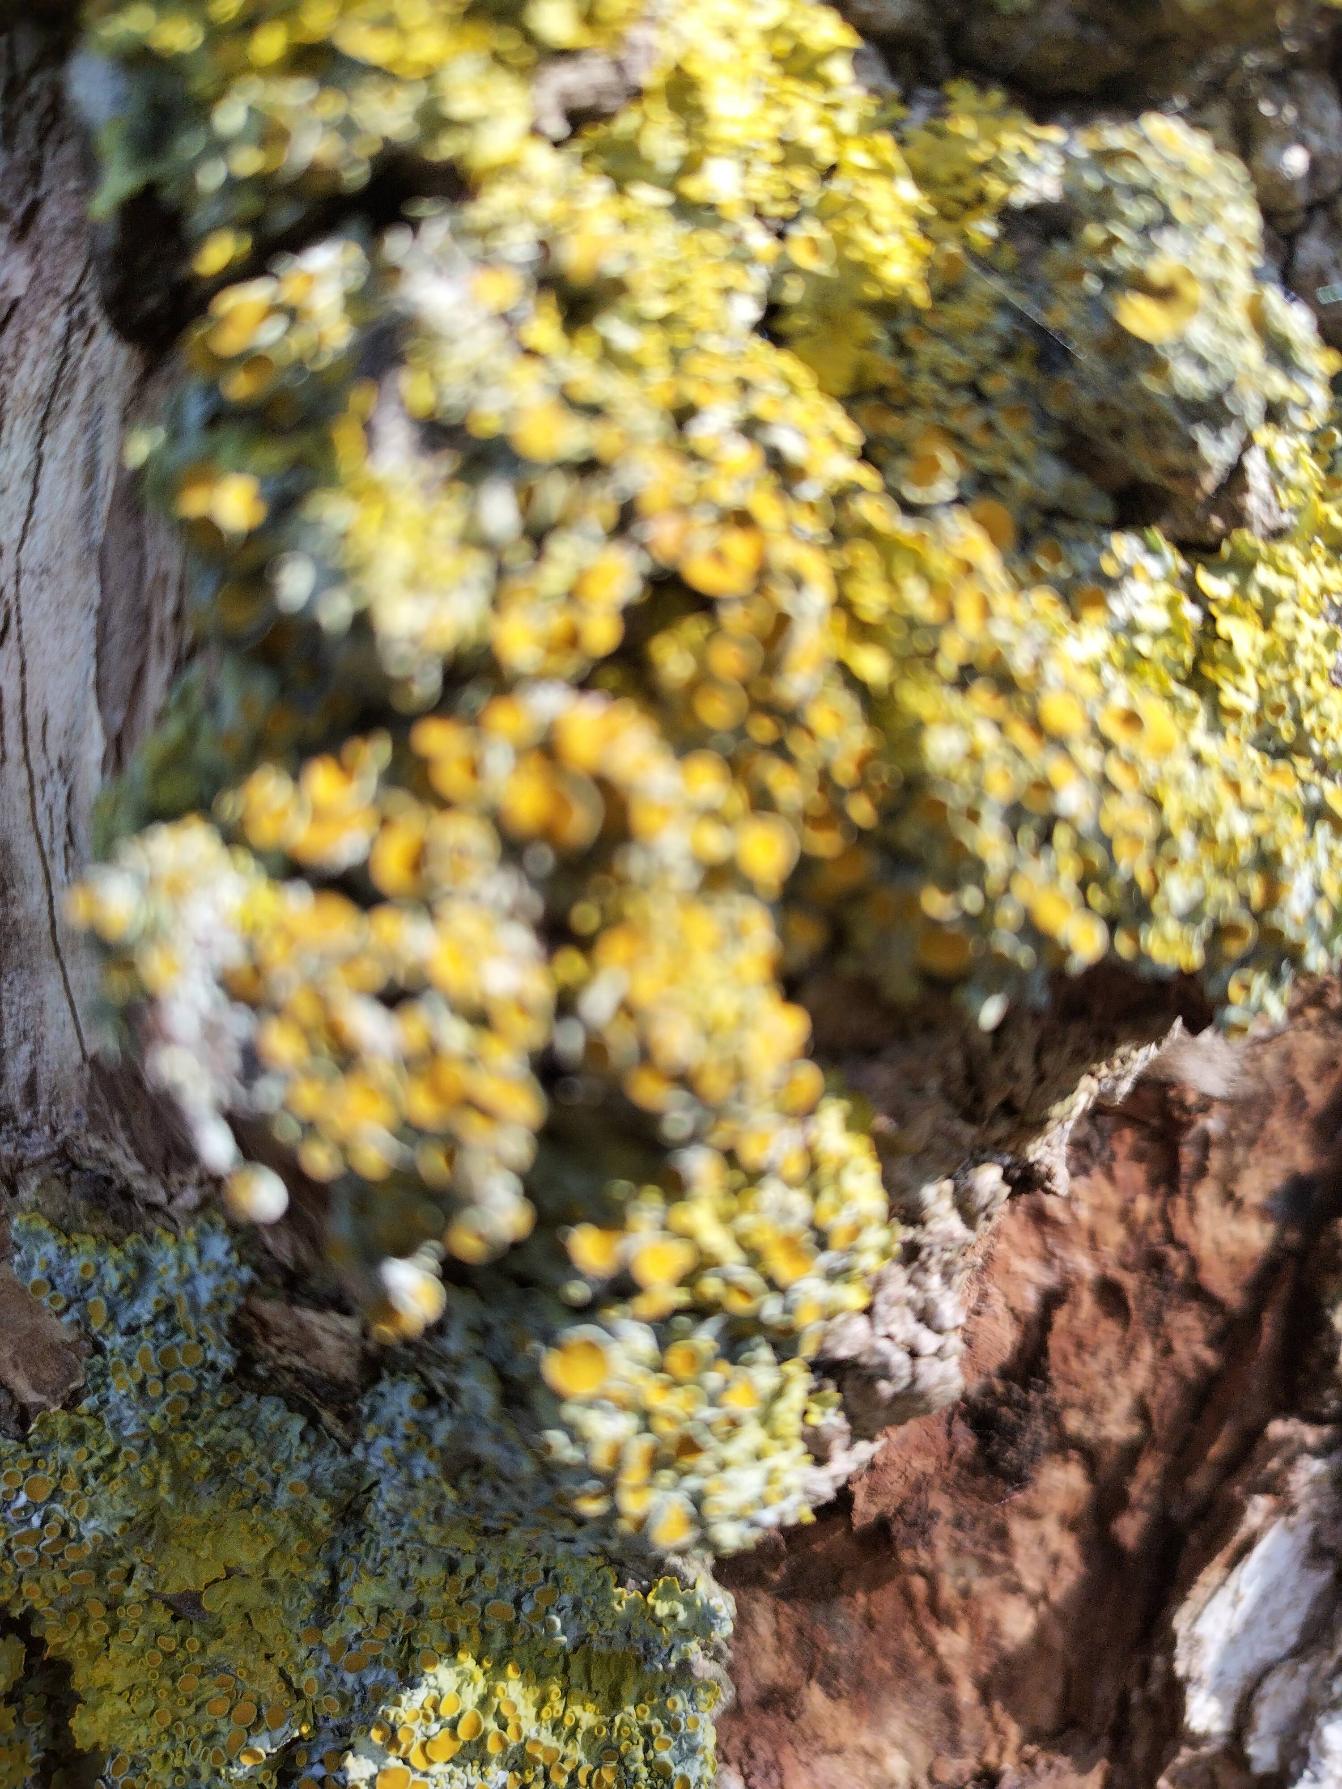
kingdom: Fungi
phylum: Ascomycota
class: Lecanoromycetes
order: Teloschistales
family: Teloschistaceae
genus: Xanthoria
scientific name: Xanthoria parietina
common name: Almindelig væggelav
